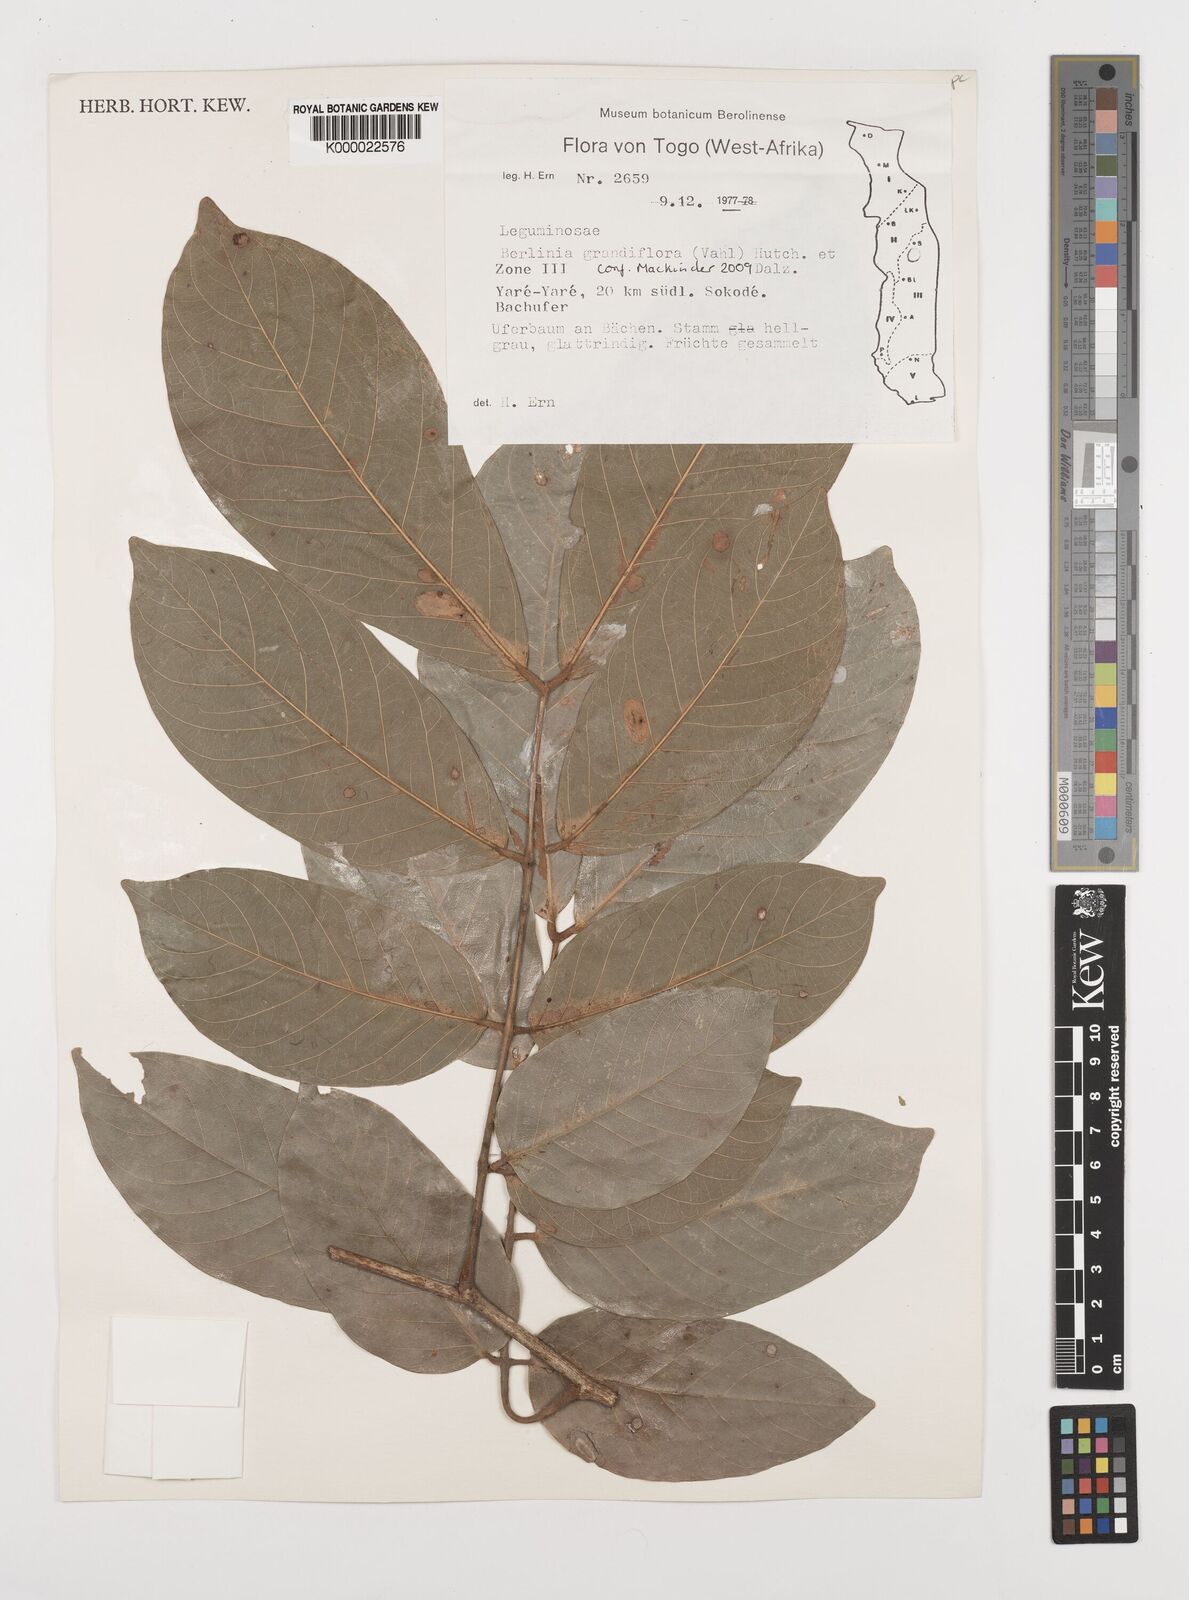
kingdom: Plantae
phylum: Tracheophyta
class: Magnoliopsida
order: Fabales
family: Fabaceae
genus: Berlinia
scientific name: Berlinia grandiflora
